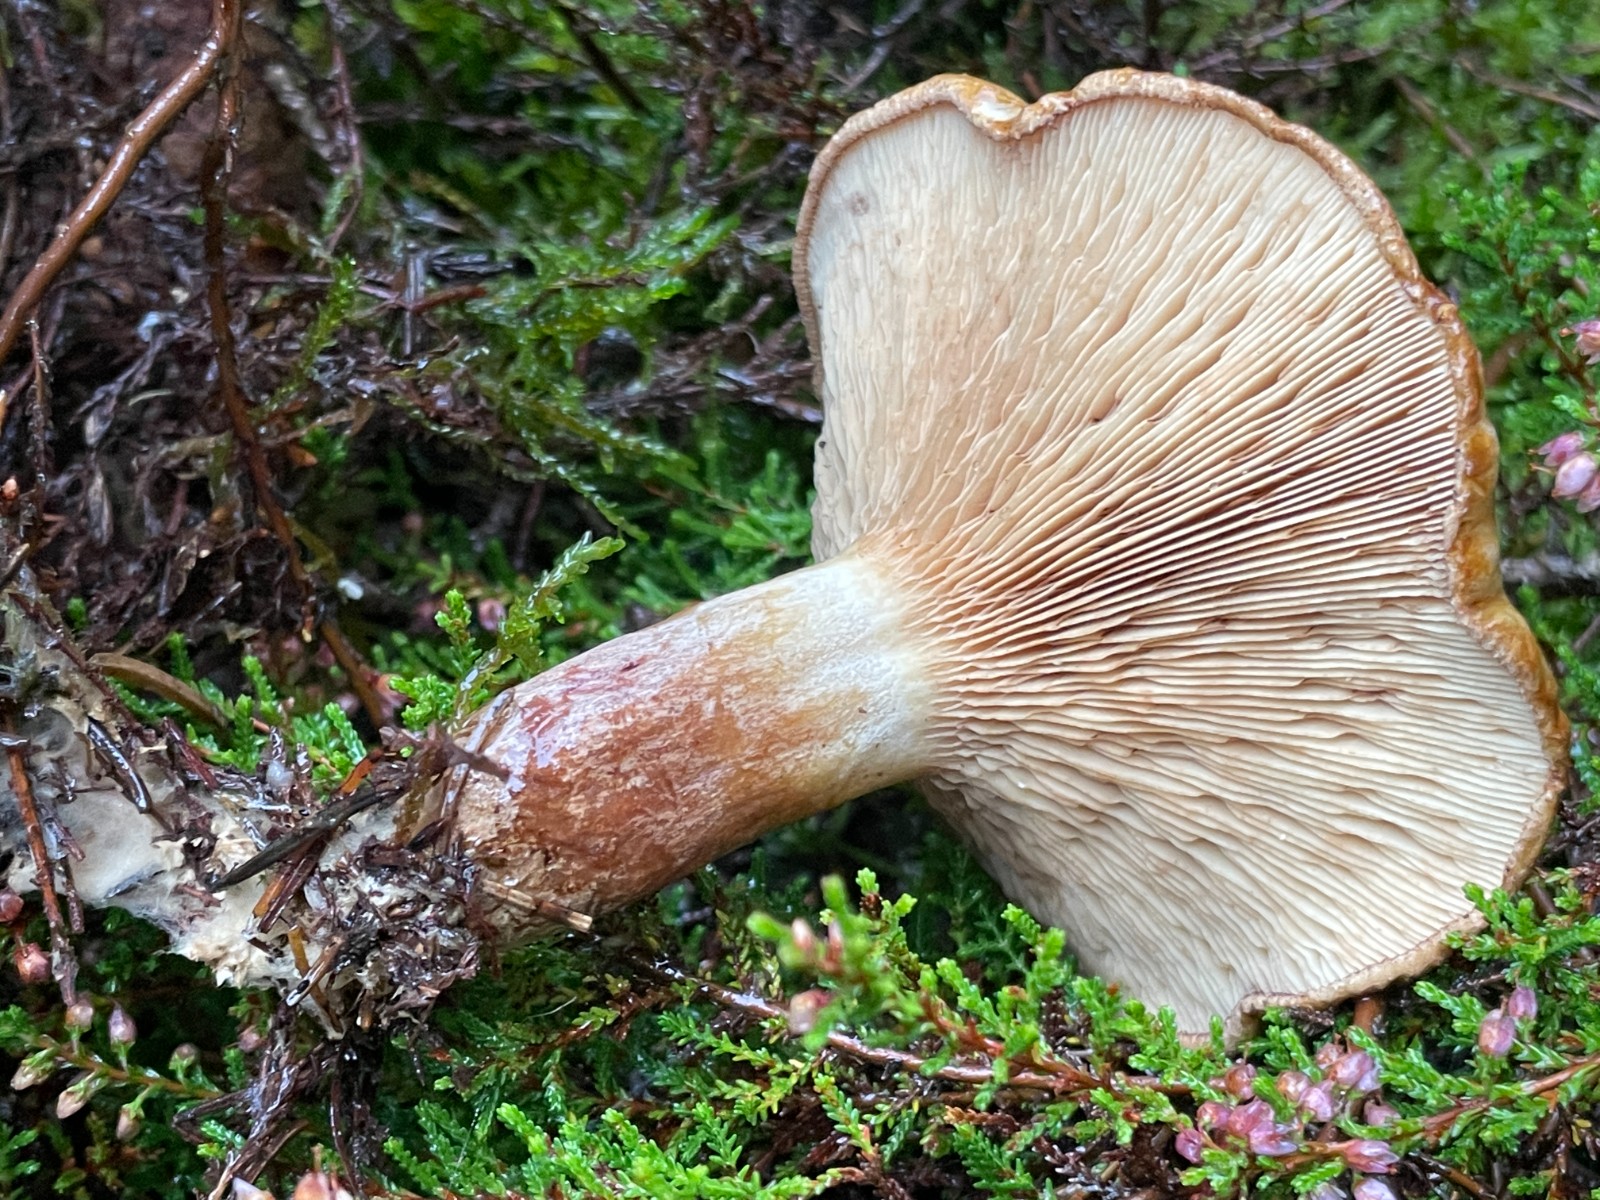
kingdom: Fungi
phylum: Basidiomycota
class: Agaricomycetes
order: Boletales
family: Paxillaceae
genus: Paxillus
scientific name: Paxillus involutus
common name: almindelig netbladhat
